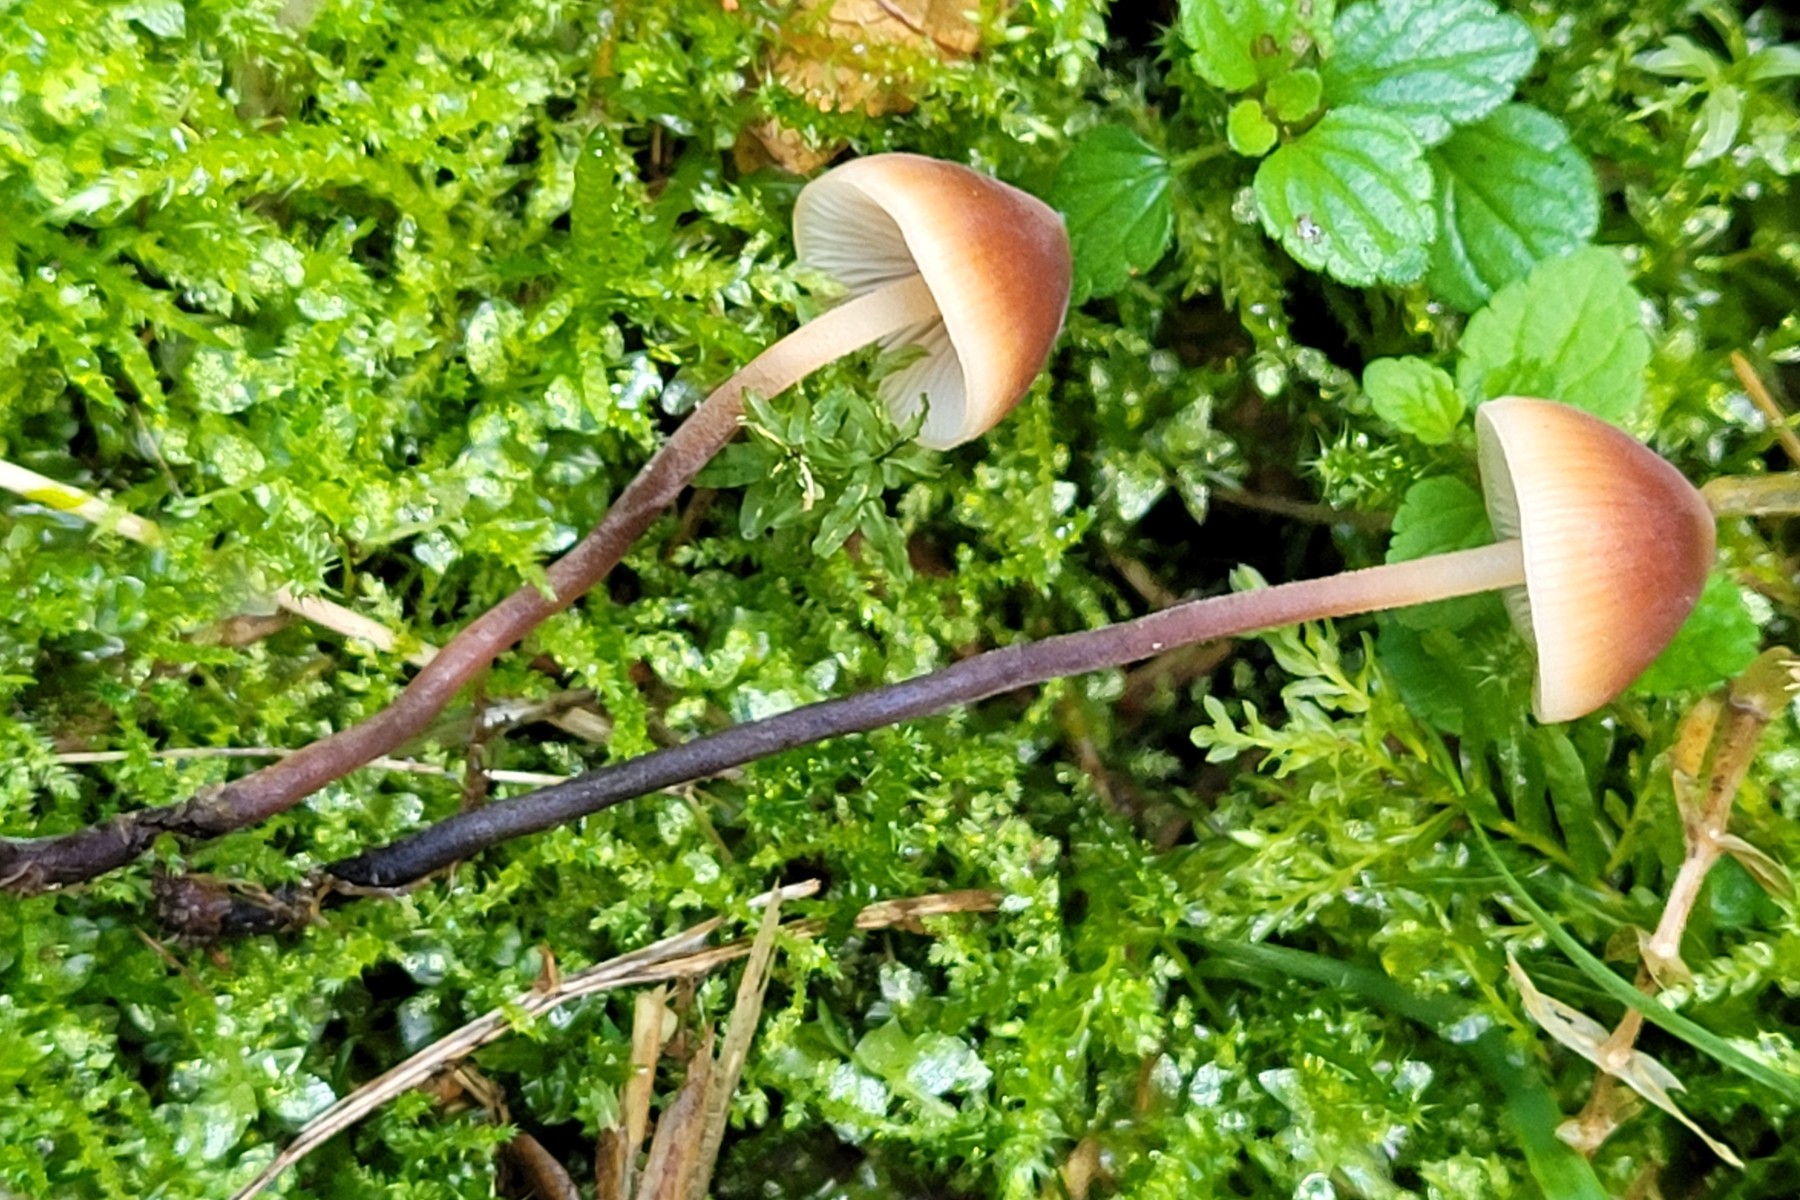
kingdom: Fungi
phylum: Basidiomycota
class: Agaricomycetes
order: Agaricales
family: Macrocystidiaceae
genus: Macrocystidia
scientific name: Macrocystidia cucumis
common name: agurkehat
